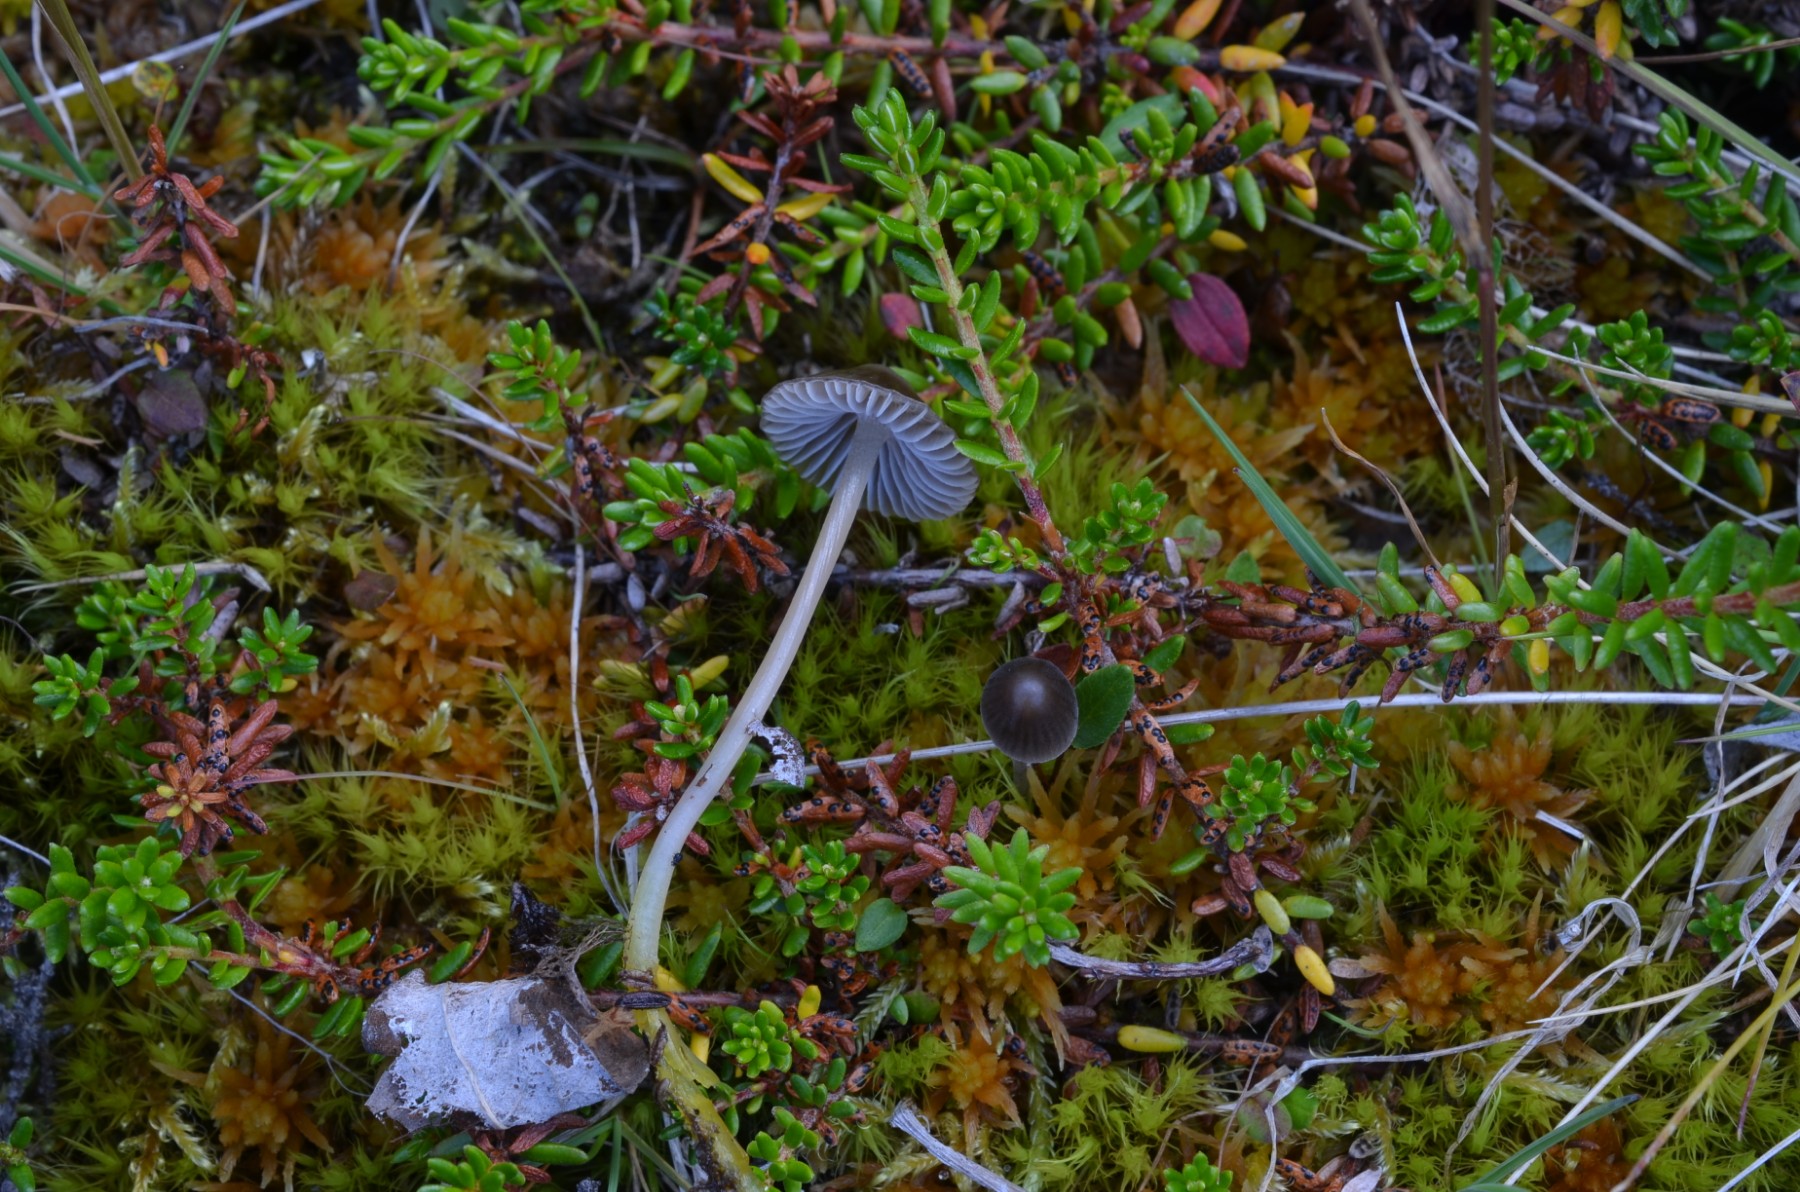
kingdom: Fungi
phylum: Basidiomycota
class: Agaricomycetes
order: Agaricales
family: Mycenaceae
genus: Mycena
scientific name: Mycena epipterygia
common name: gulstokket huesvamp
